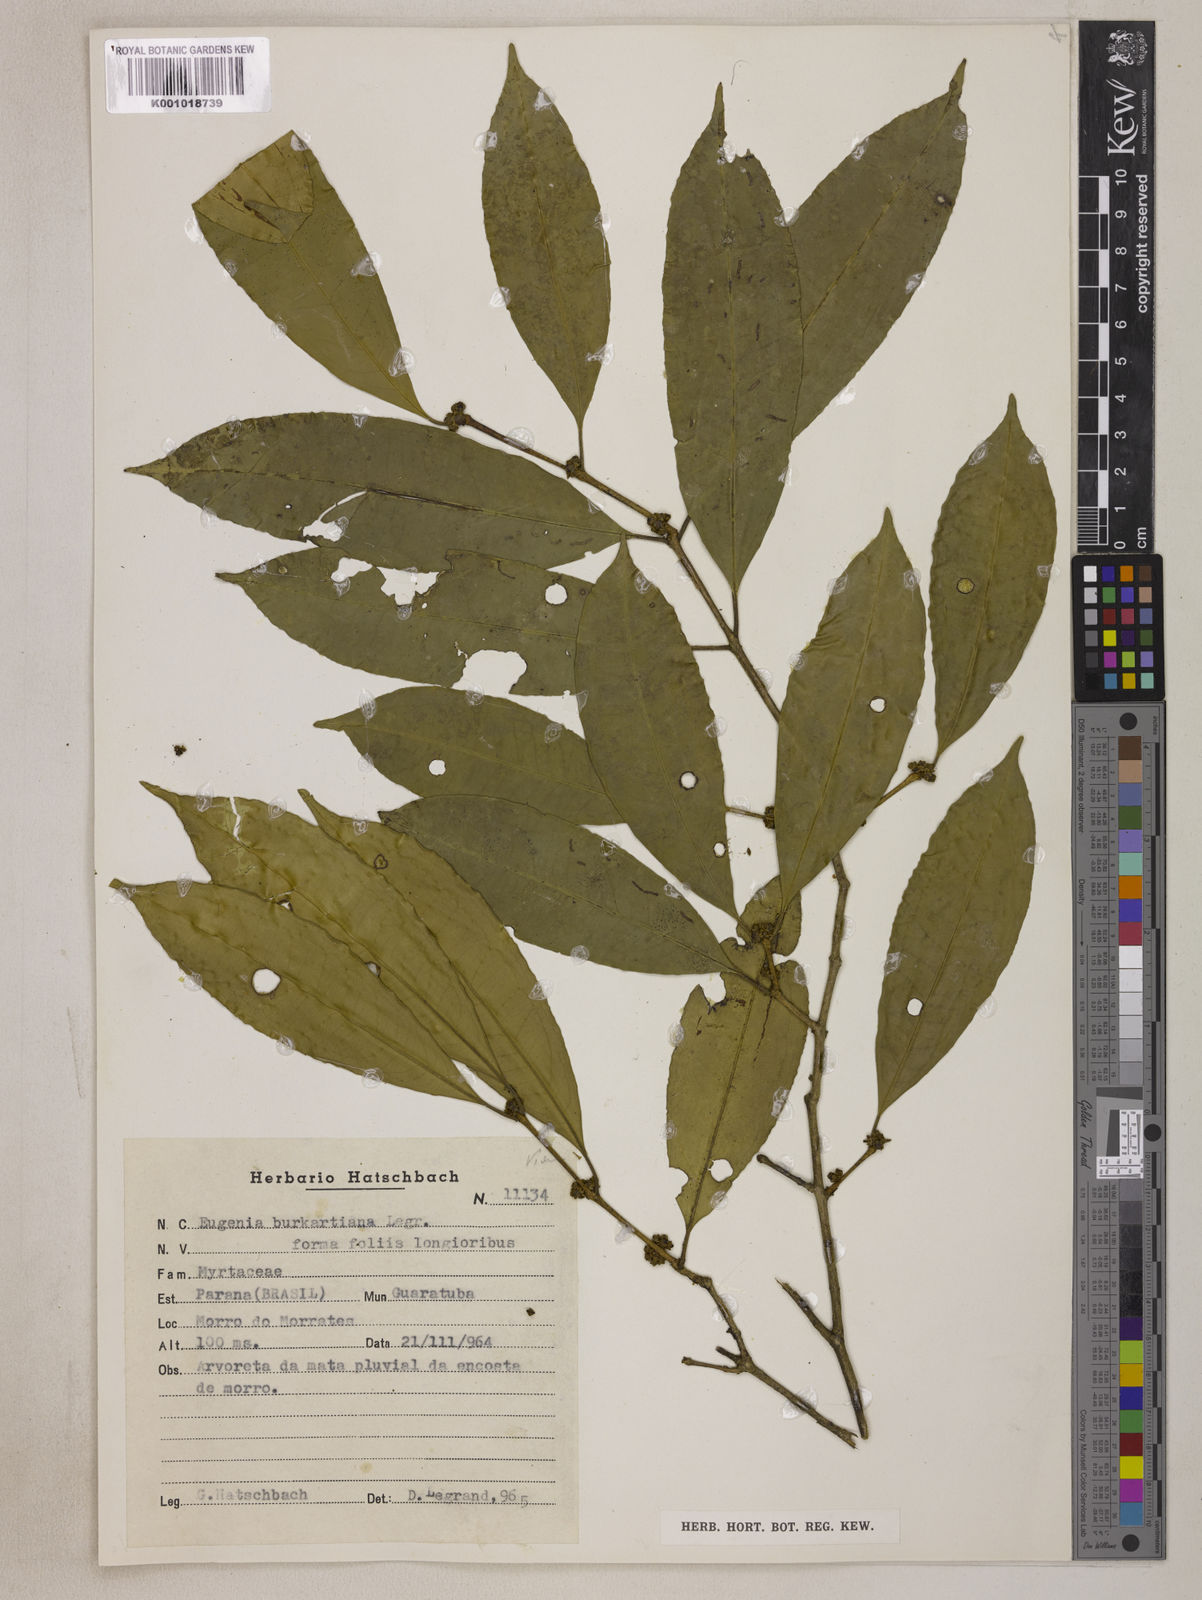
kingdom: Plantae
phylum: Tracheophyta
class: Magnoliopsida
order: Myrtales
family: Myrtaceae
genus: Eugenia
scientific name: Eugenia burkartiana
